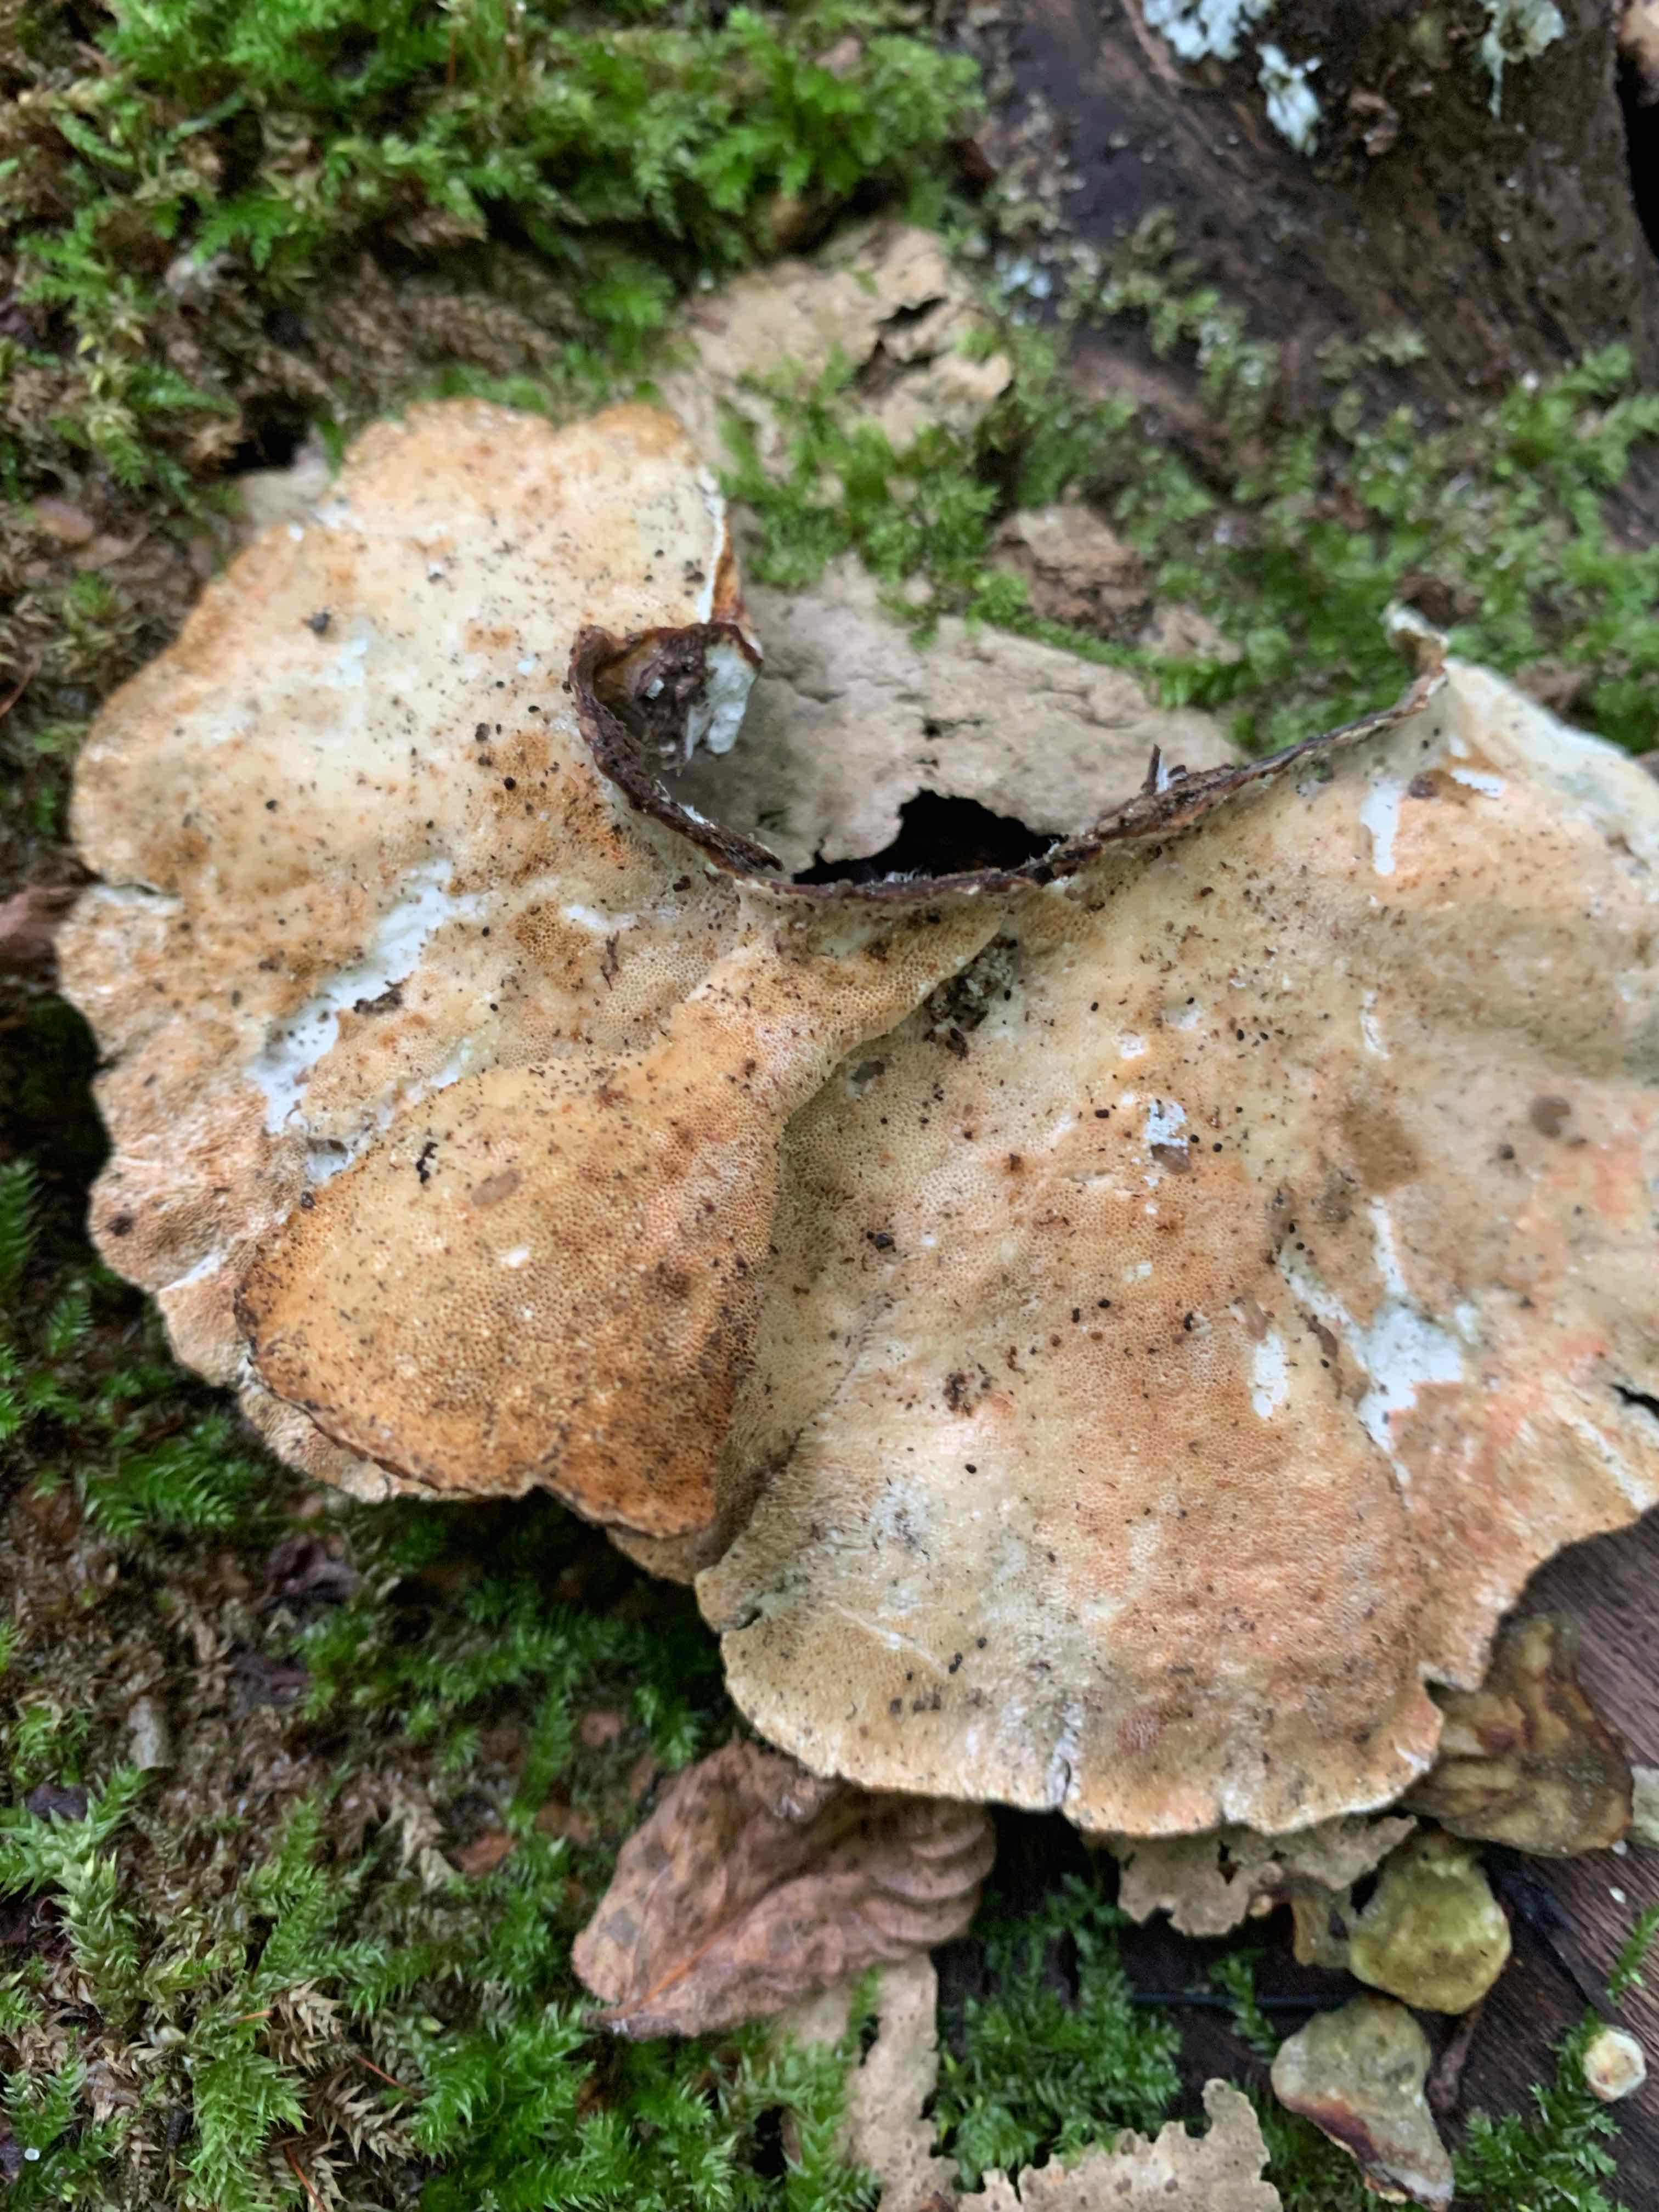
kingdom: Fungi
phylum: Basidiomycota
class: Agaricomycetes
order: Polyporales
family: Polyporaceae
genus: Trametes
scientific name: Trametes versicolor
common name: broget læderporesvamp
